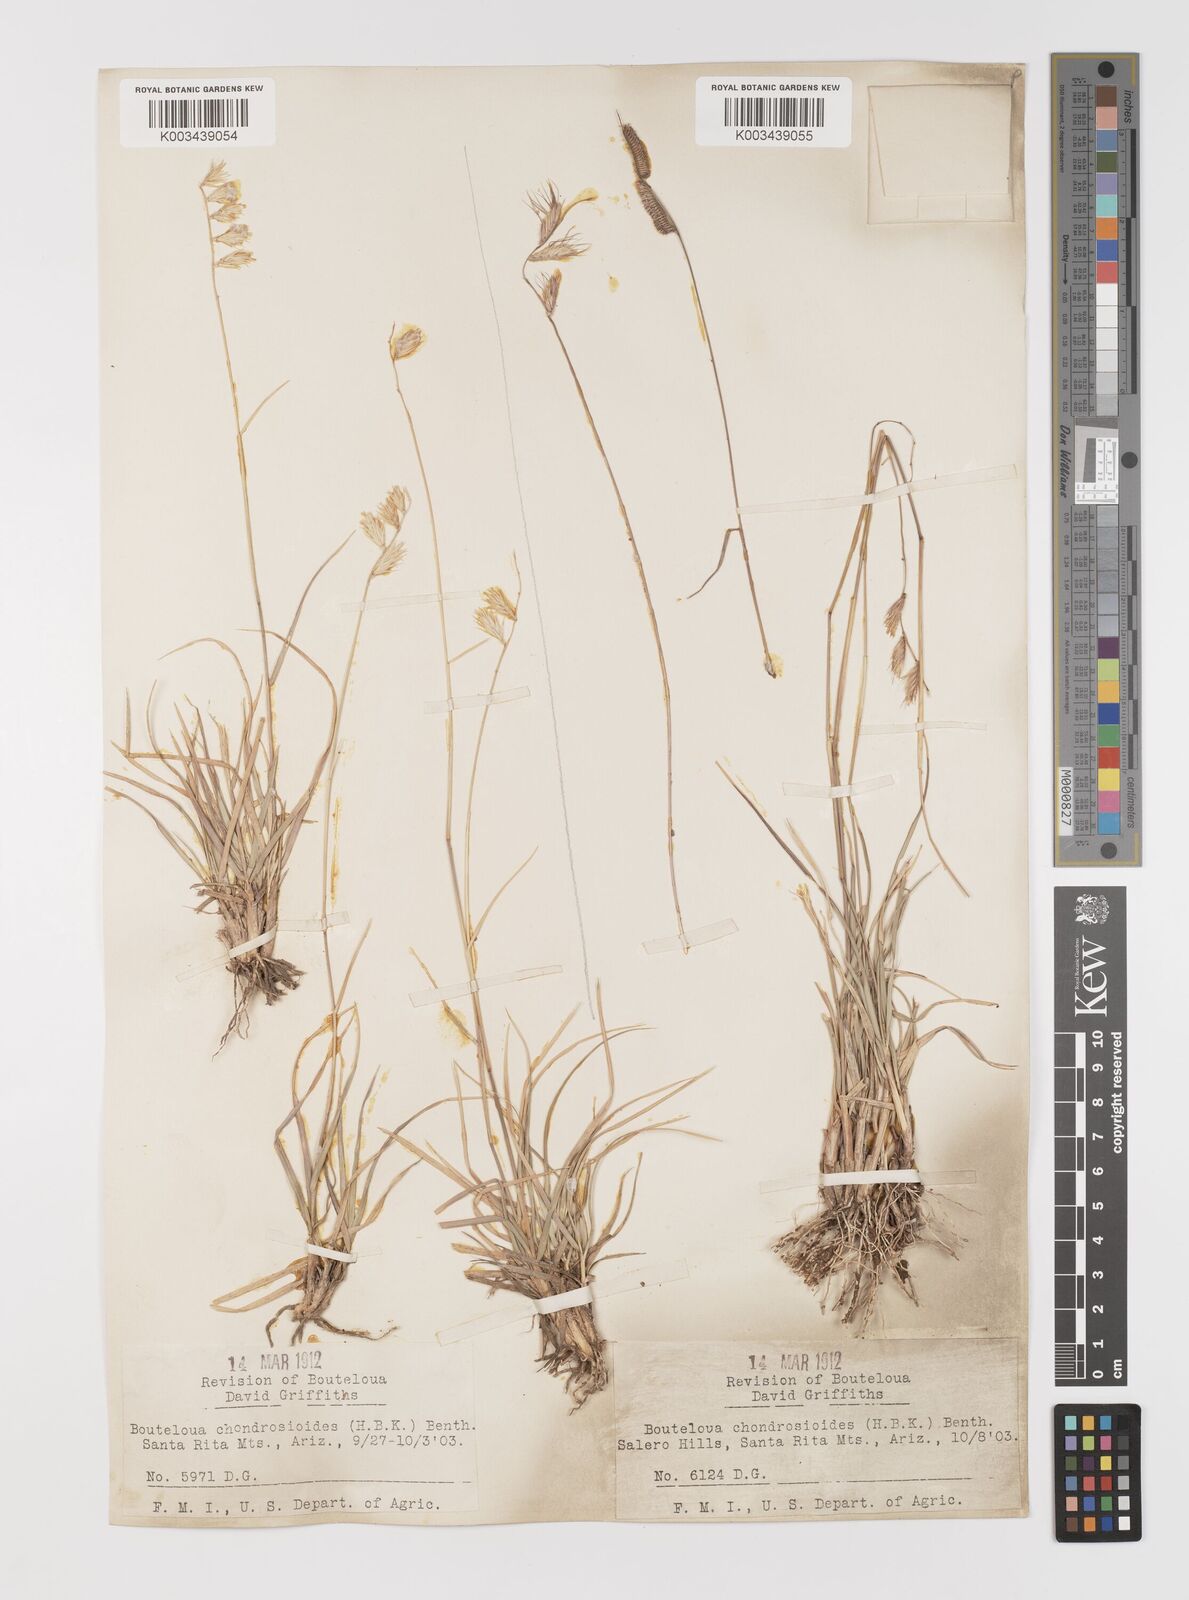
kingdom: Plantae
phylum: Tracheophyta
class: Liliopsida
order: Poales
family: Poaceae
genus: Bouteloua
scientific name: Bouteloua chondrosioides
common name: Sprucetop grama
